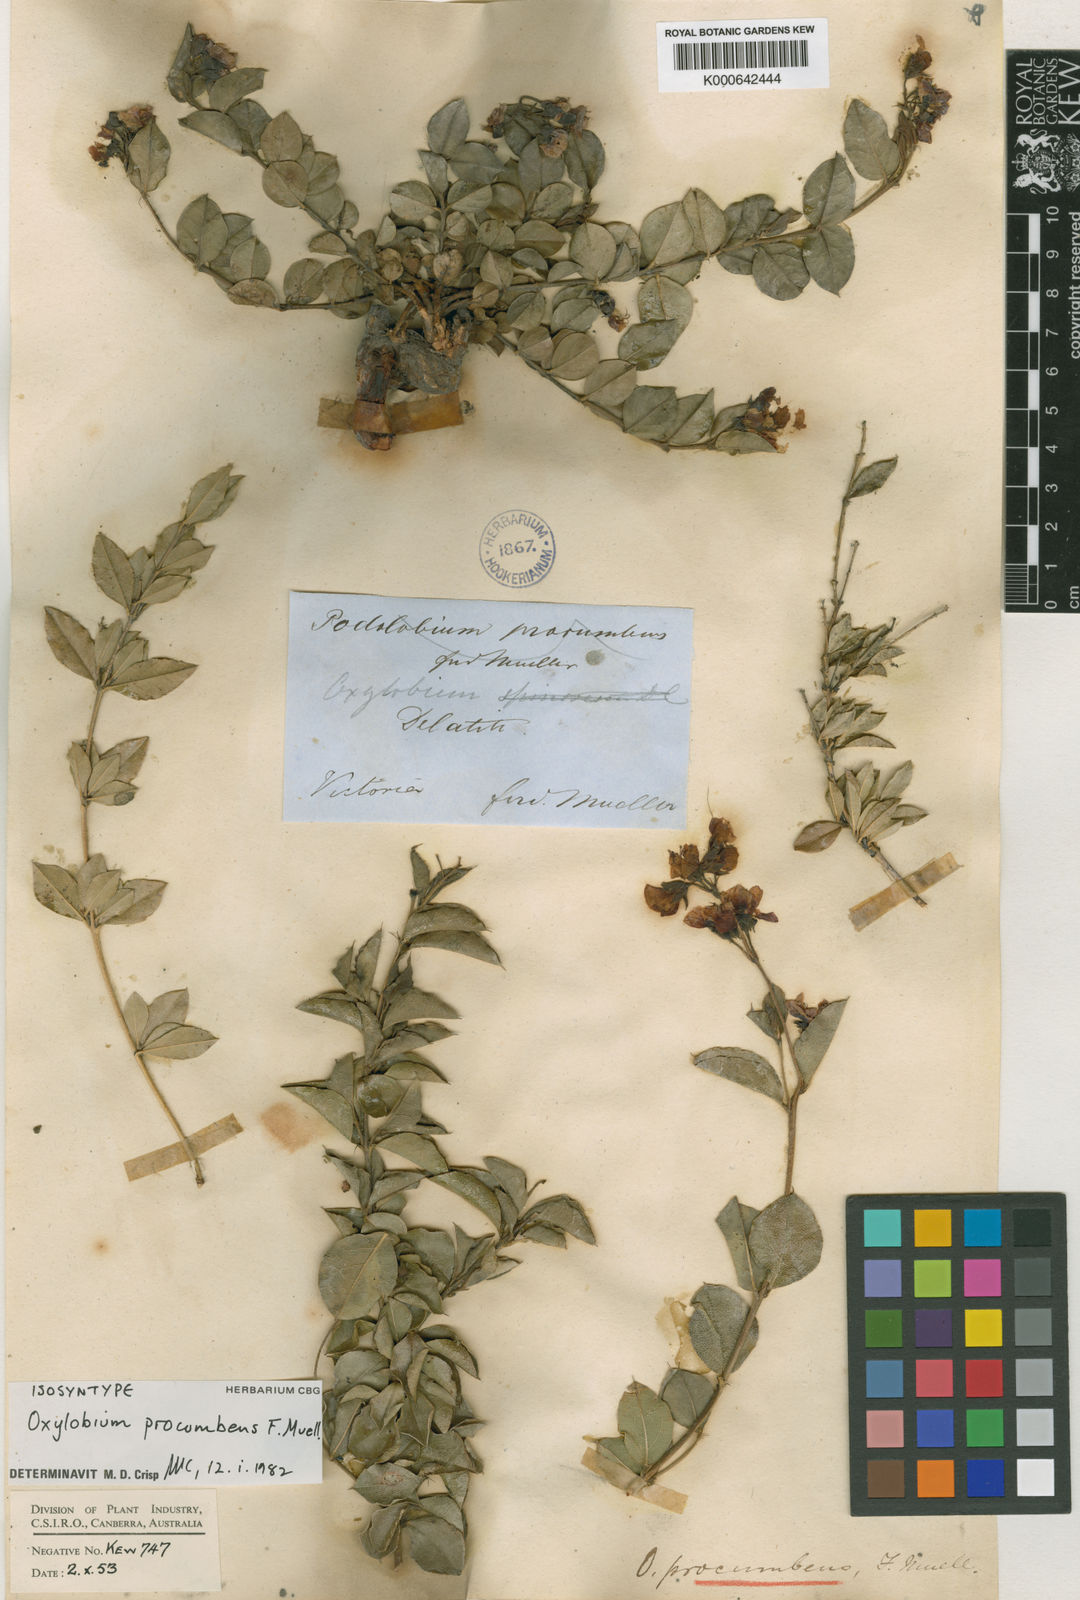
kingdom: Plantae
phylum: Tracheophyta
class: Magnoliopsida
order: Fabales
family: Fabaceae
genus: Podolobium
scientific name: Podolobium procumbens
